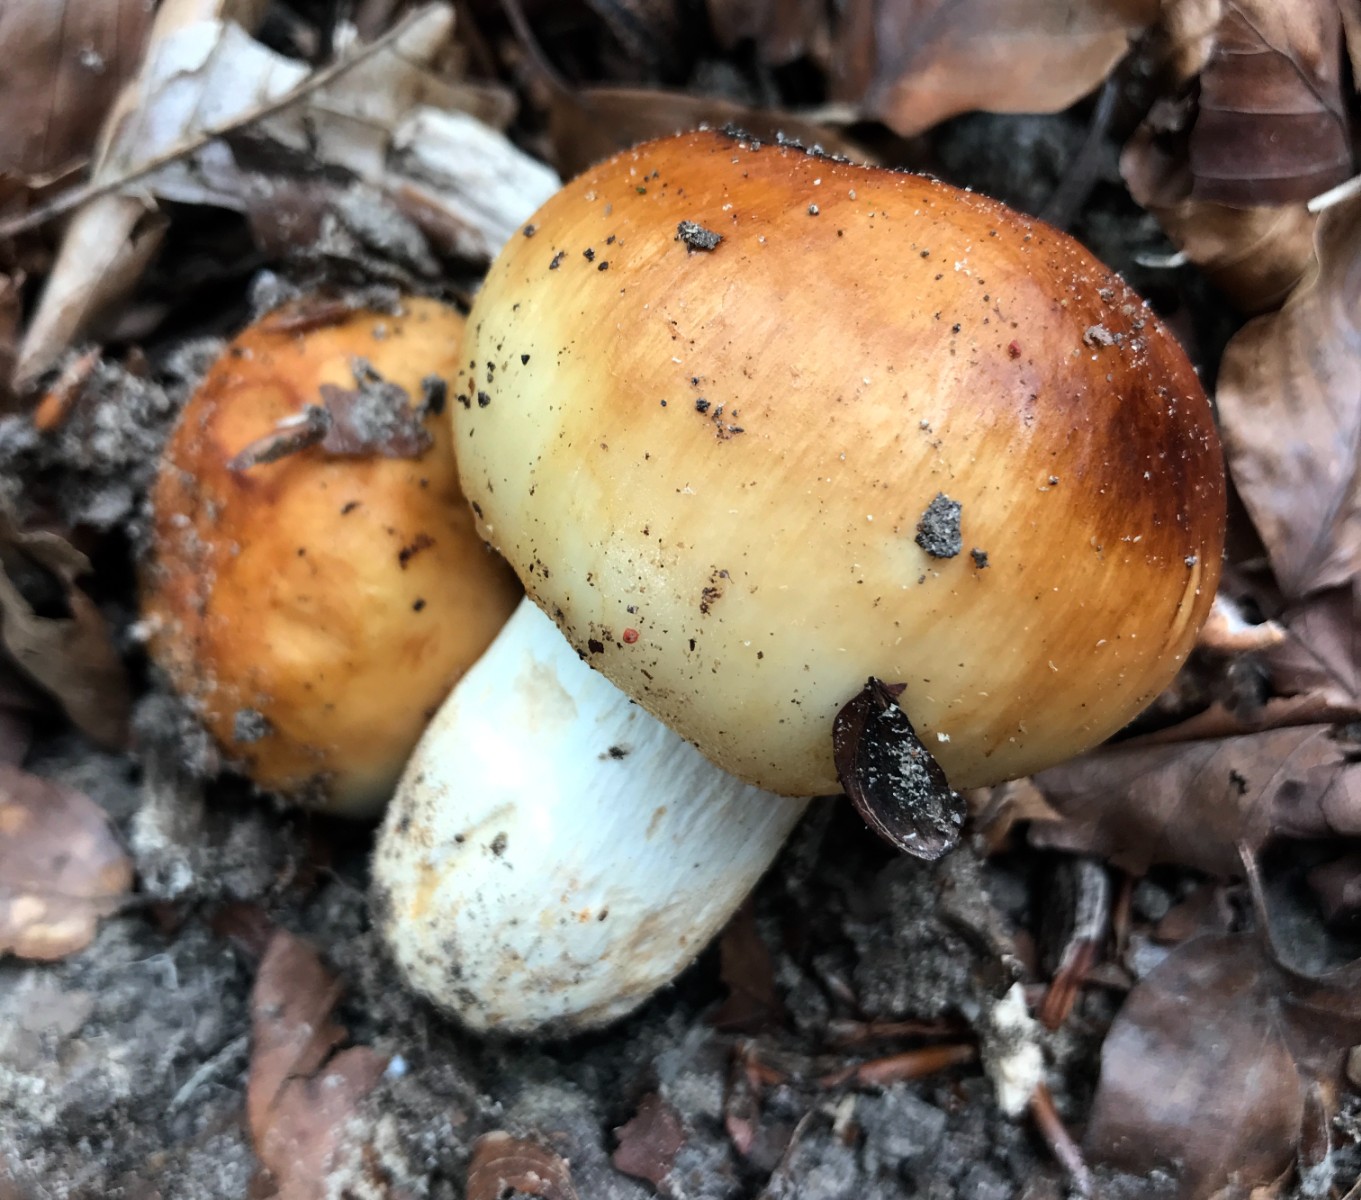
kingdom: Fungi
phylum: Basidiomycota
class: Agaricomycetes
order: Russulales
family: Russulaceae
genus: Russula
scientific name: Russula foetens
